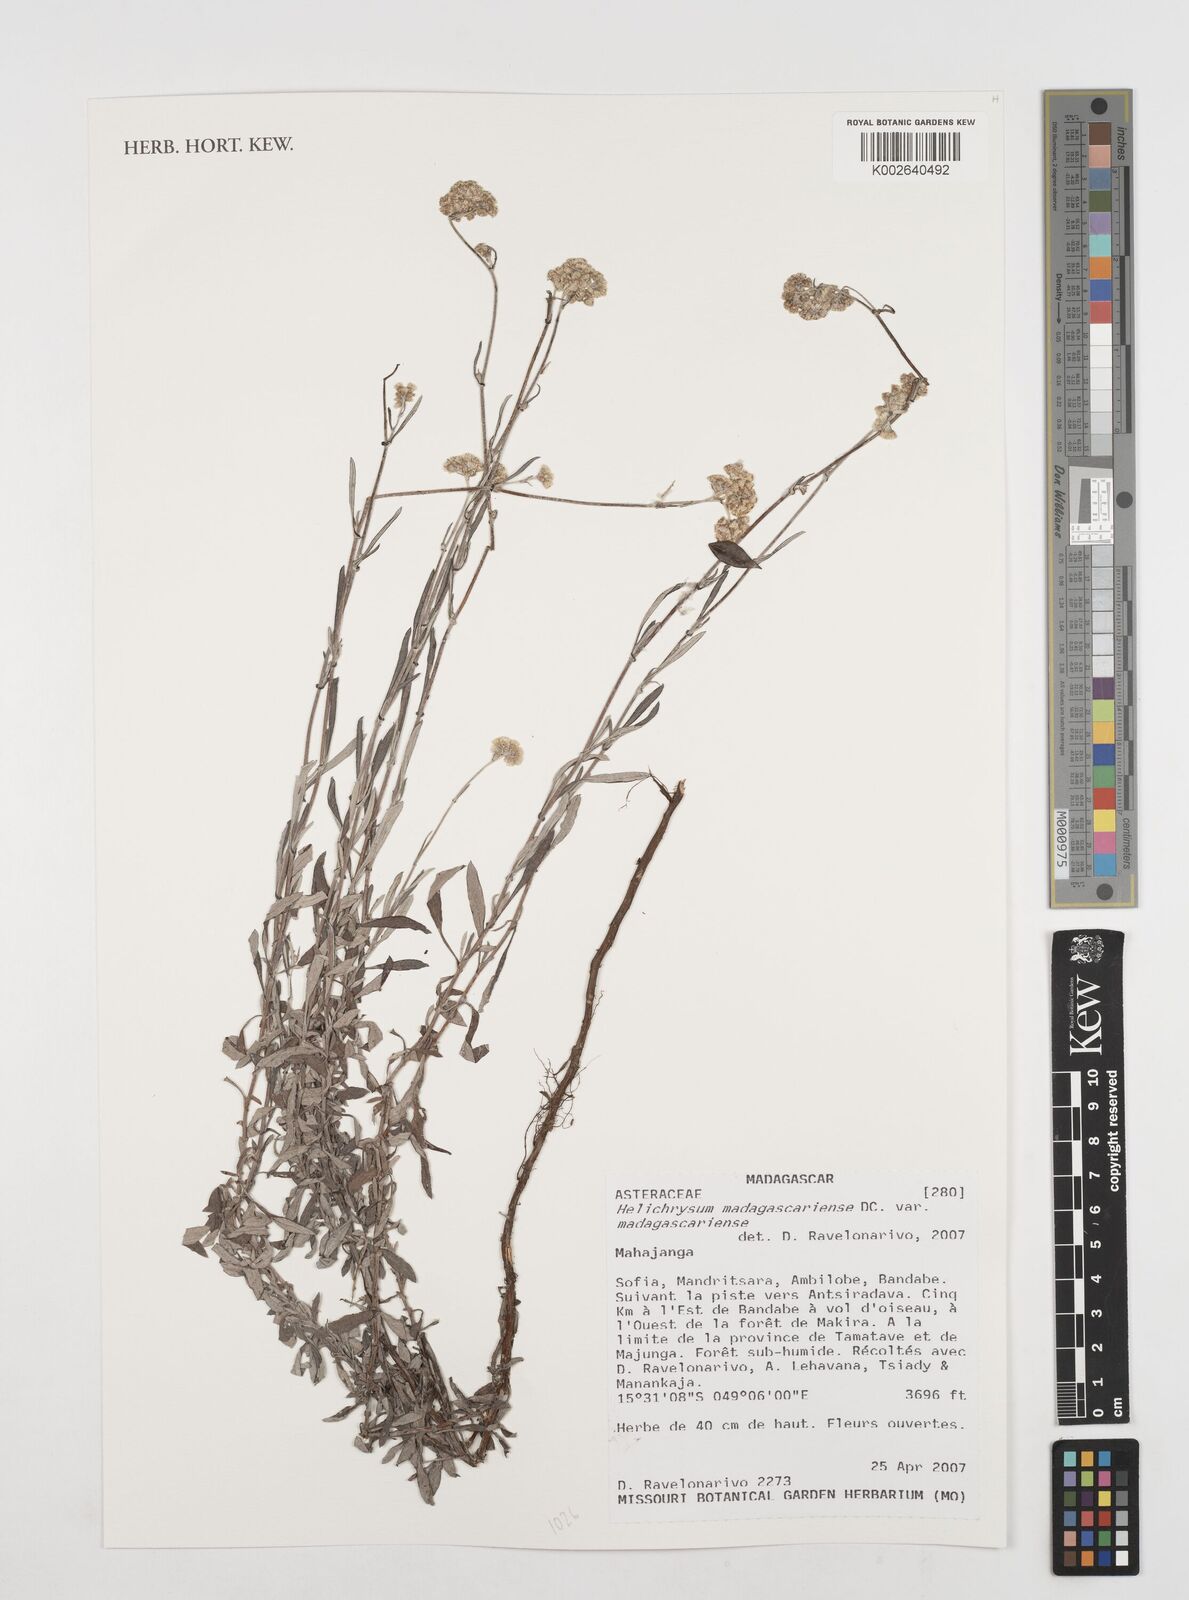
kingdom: Plantae
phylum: Tracheophyta
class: Magnoliopsida
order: Asterales
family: Asteraceae
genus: Helichrysum
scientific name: Helichrysum madagascariense
